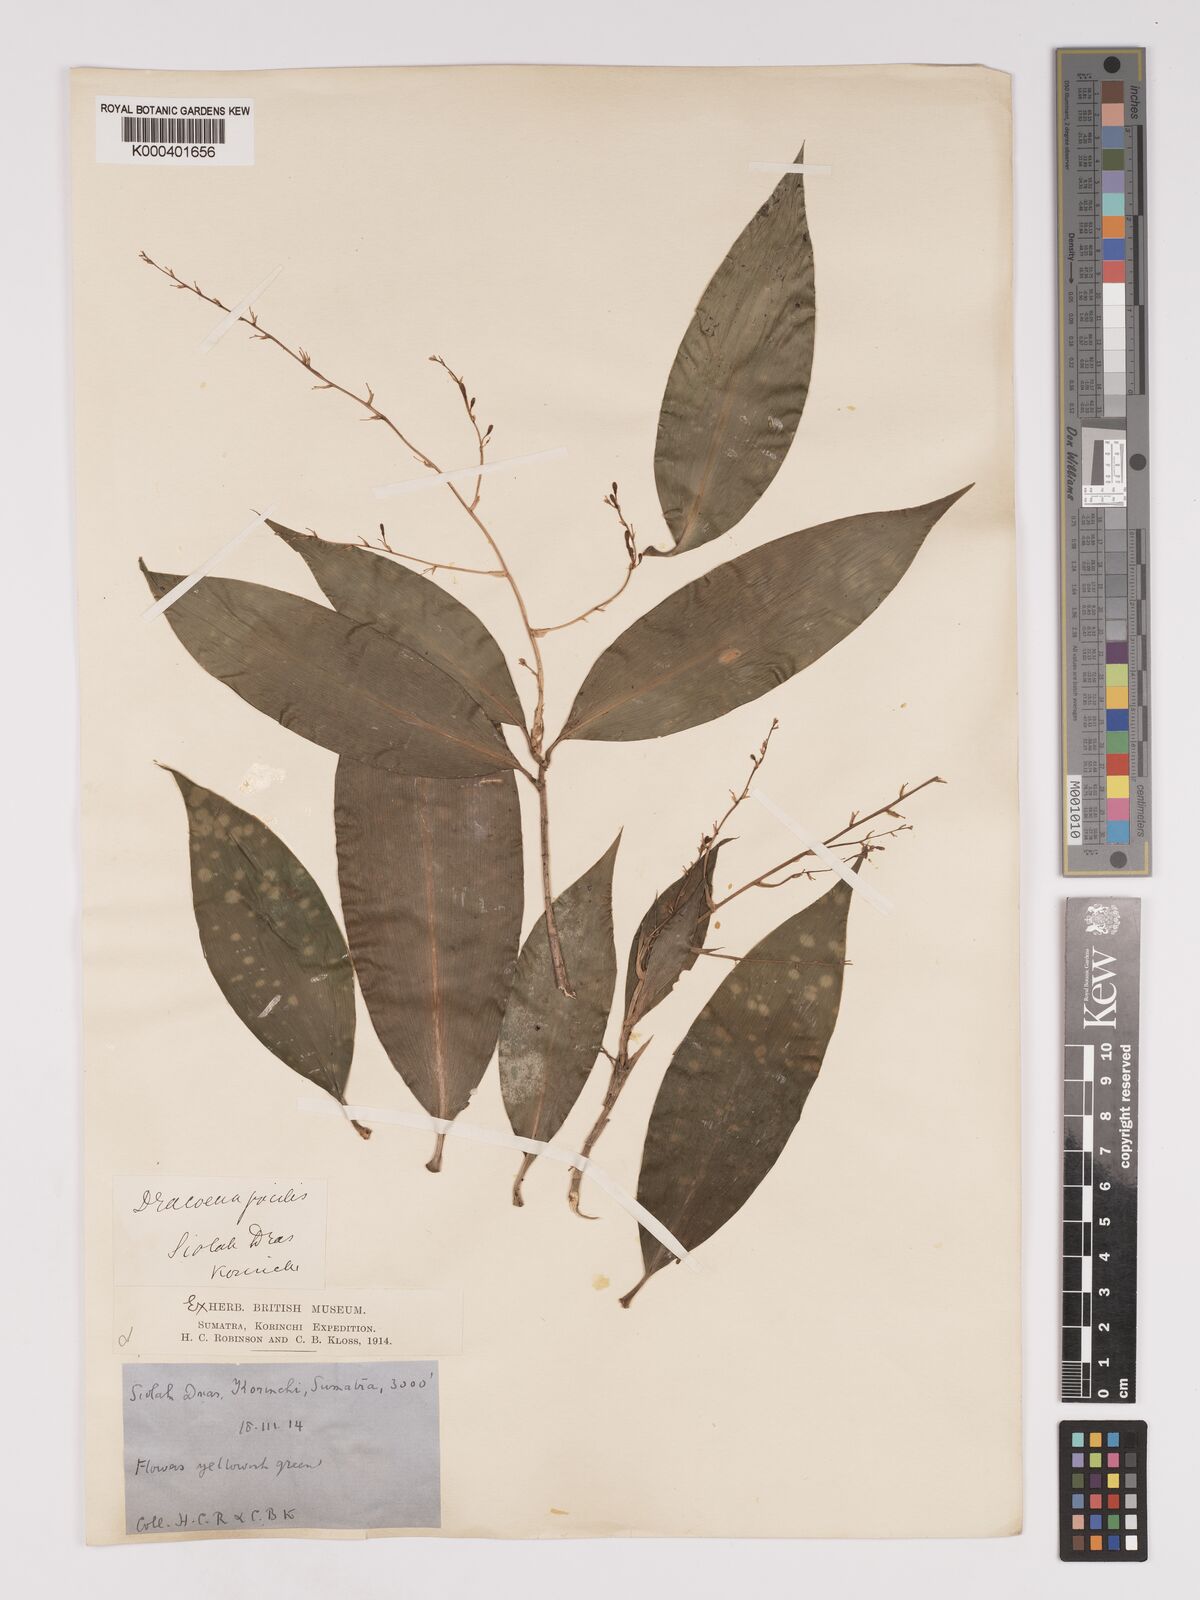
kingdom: Plantae
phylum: Tracheophyta
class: Liliopsida
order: Asparagales
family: Asparagaceae
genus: Dracaena
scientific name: Dracaena elliptica
